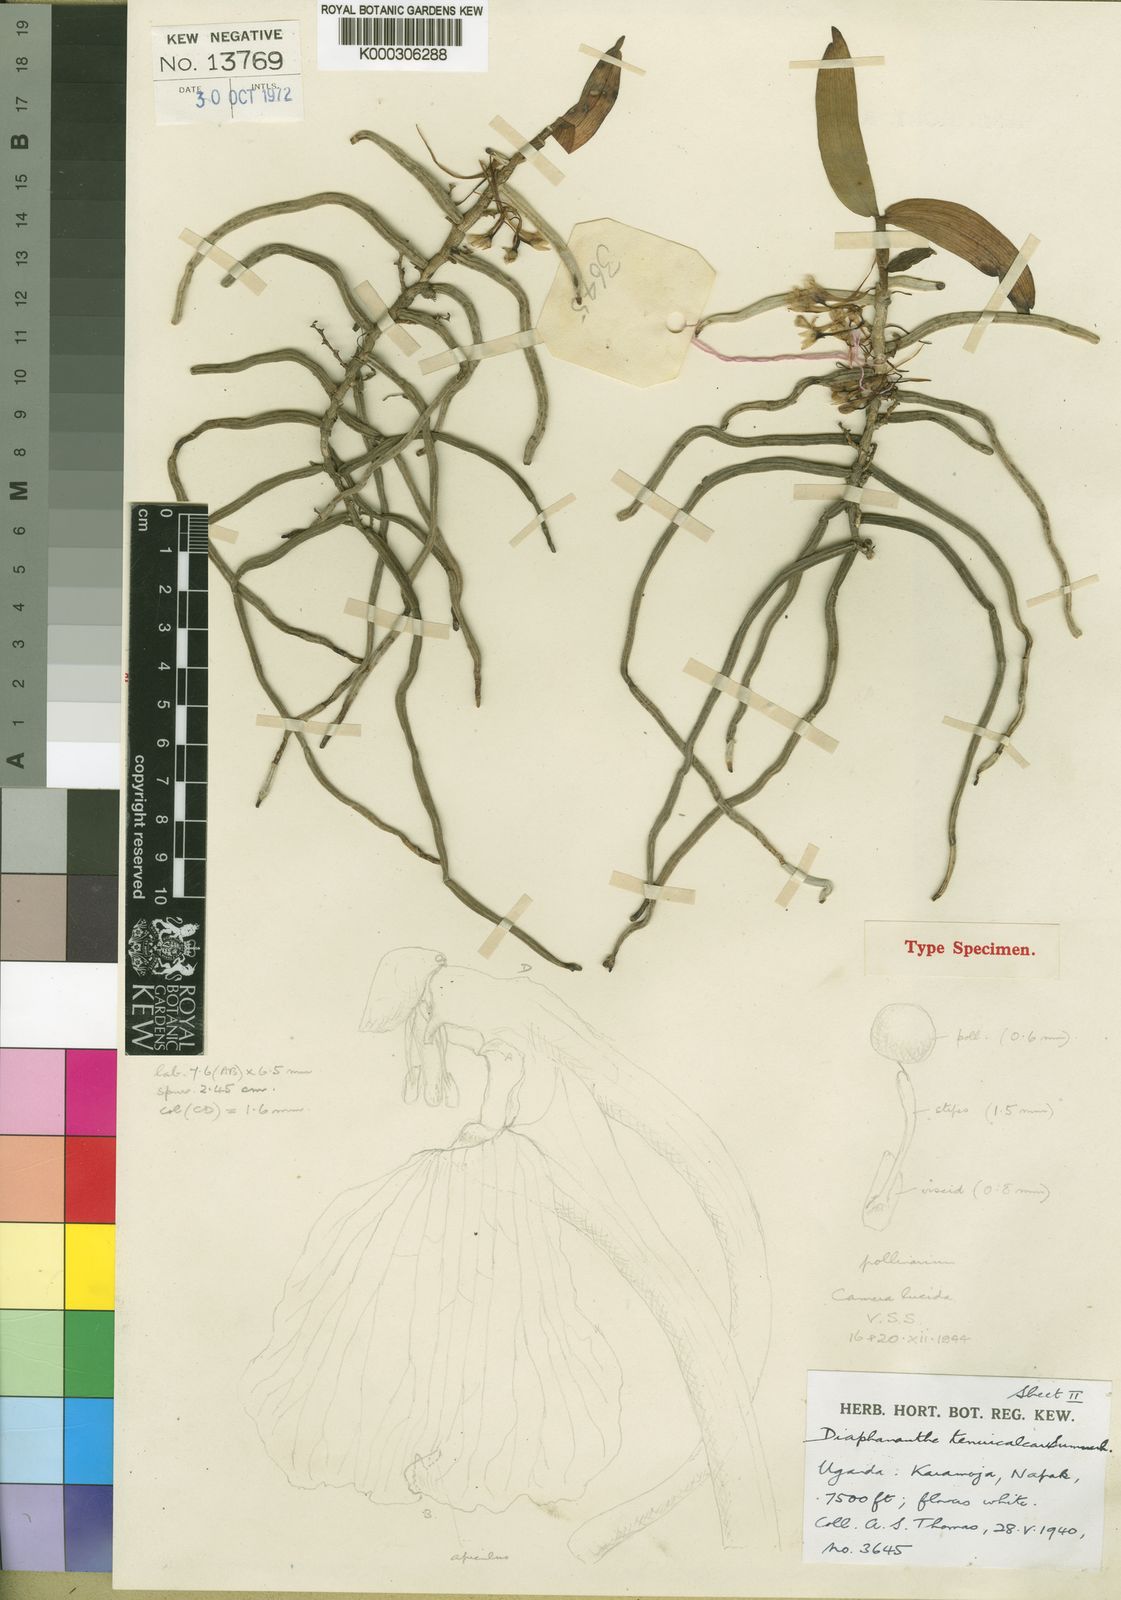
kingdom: Plantae
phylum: Tracheophyta
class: Liliopsida
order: Asparagales
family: Orchidaceae
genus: Rhipidoglossum
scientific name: Rhipidoglossum tenuicalcar
